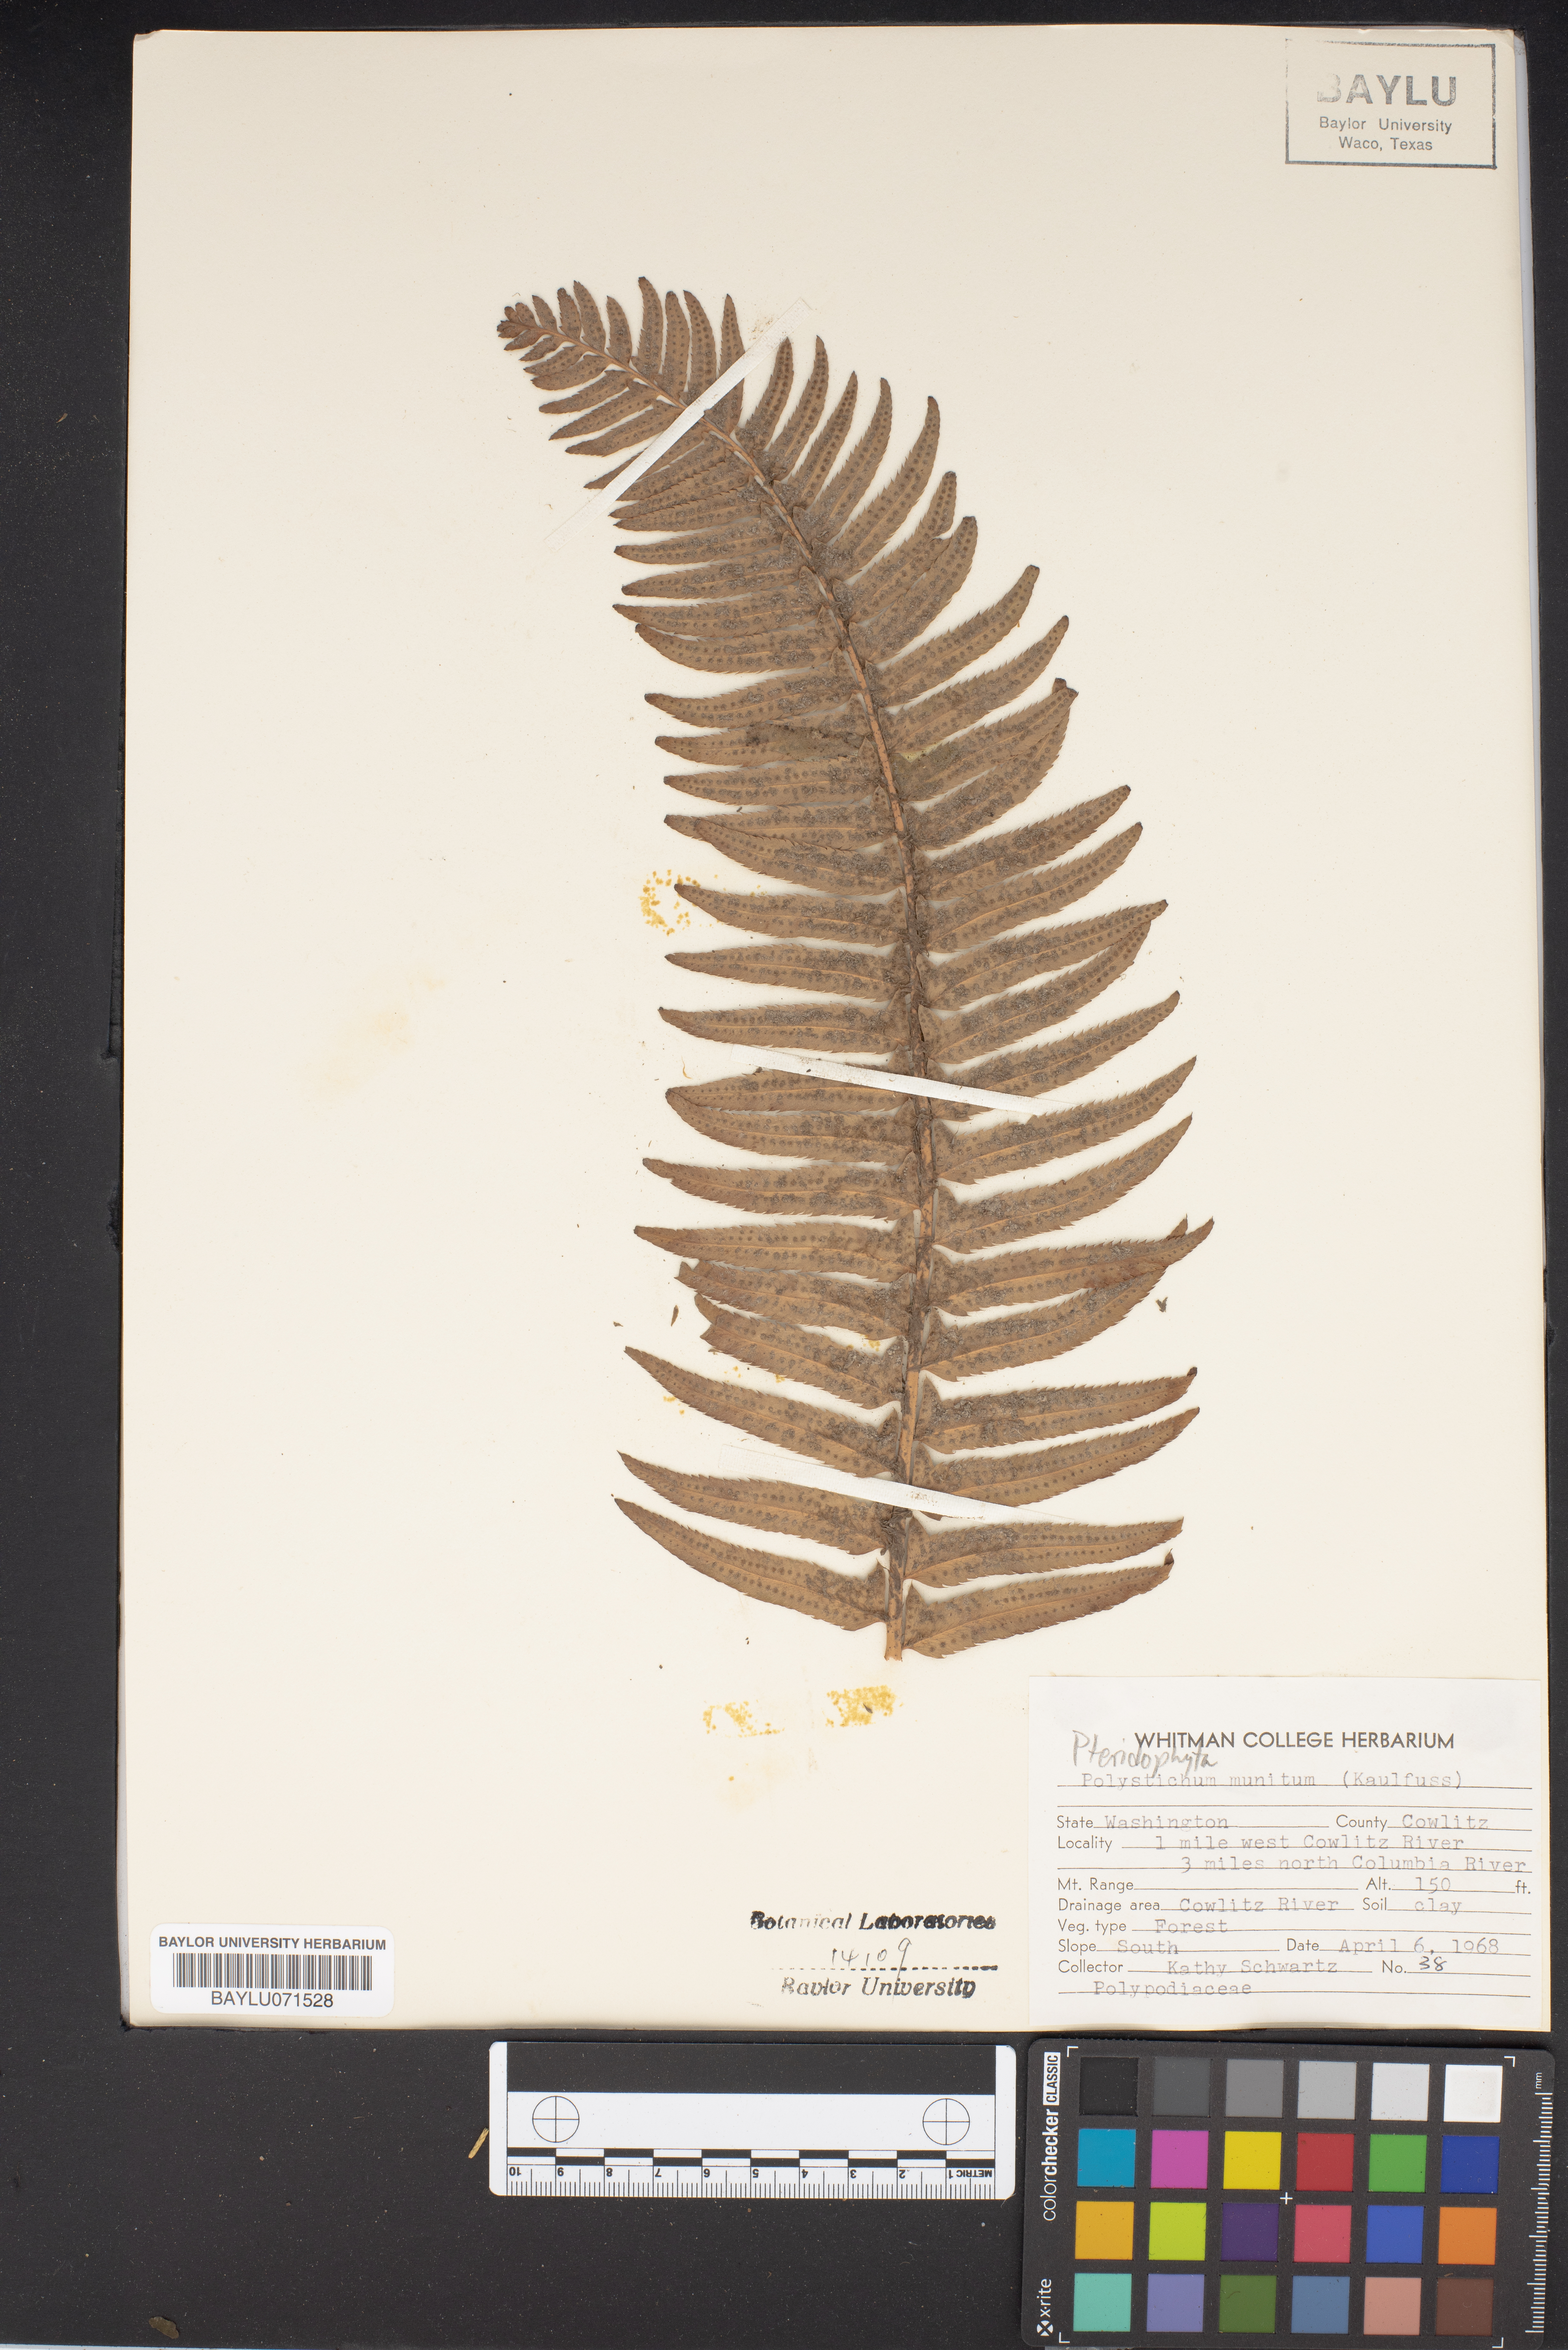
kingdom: Plantae
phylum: Tracheophyta
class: Polypodiopsida
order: Polypodiales
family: Dryopteridaceae
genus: Polystichum
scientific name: Polystichum munitum
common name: Western sword-fern
